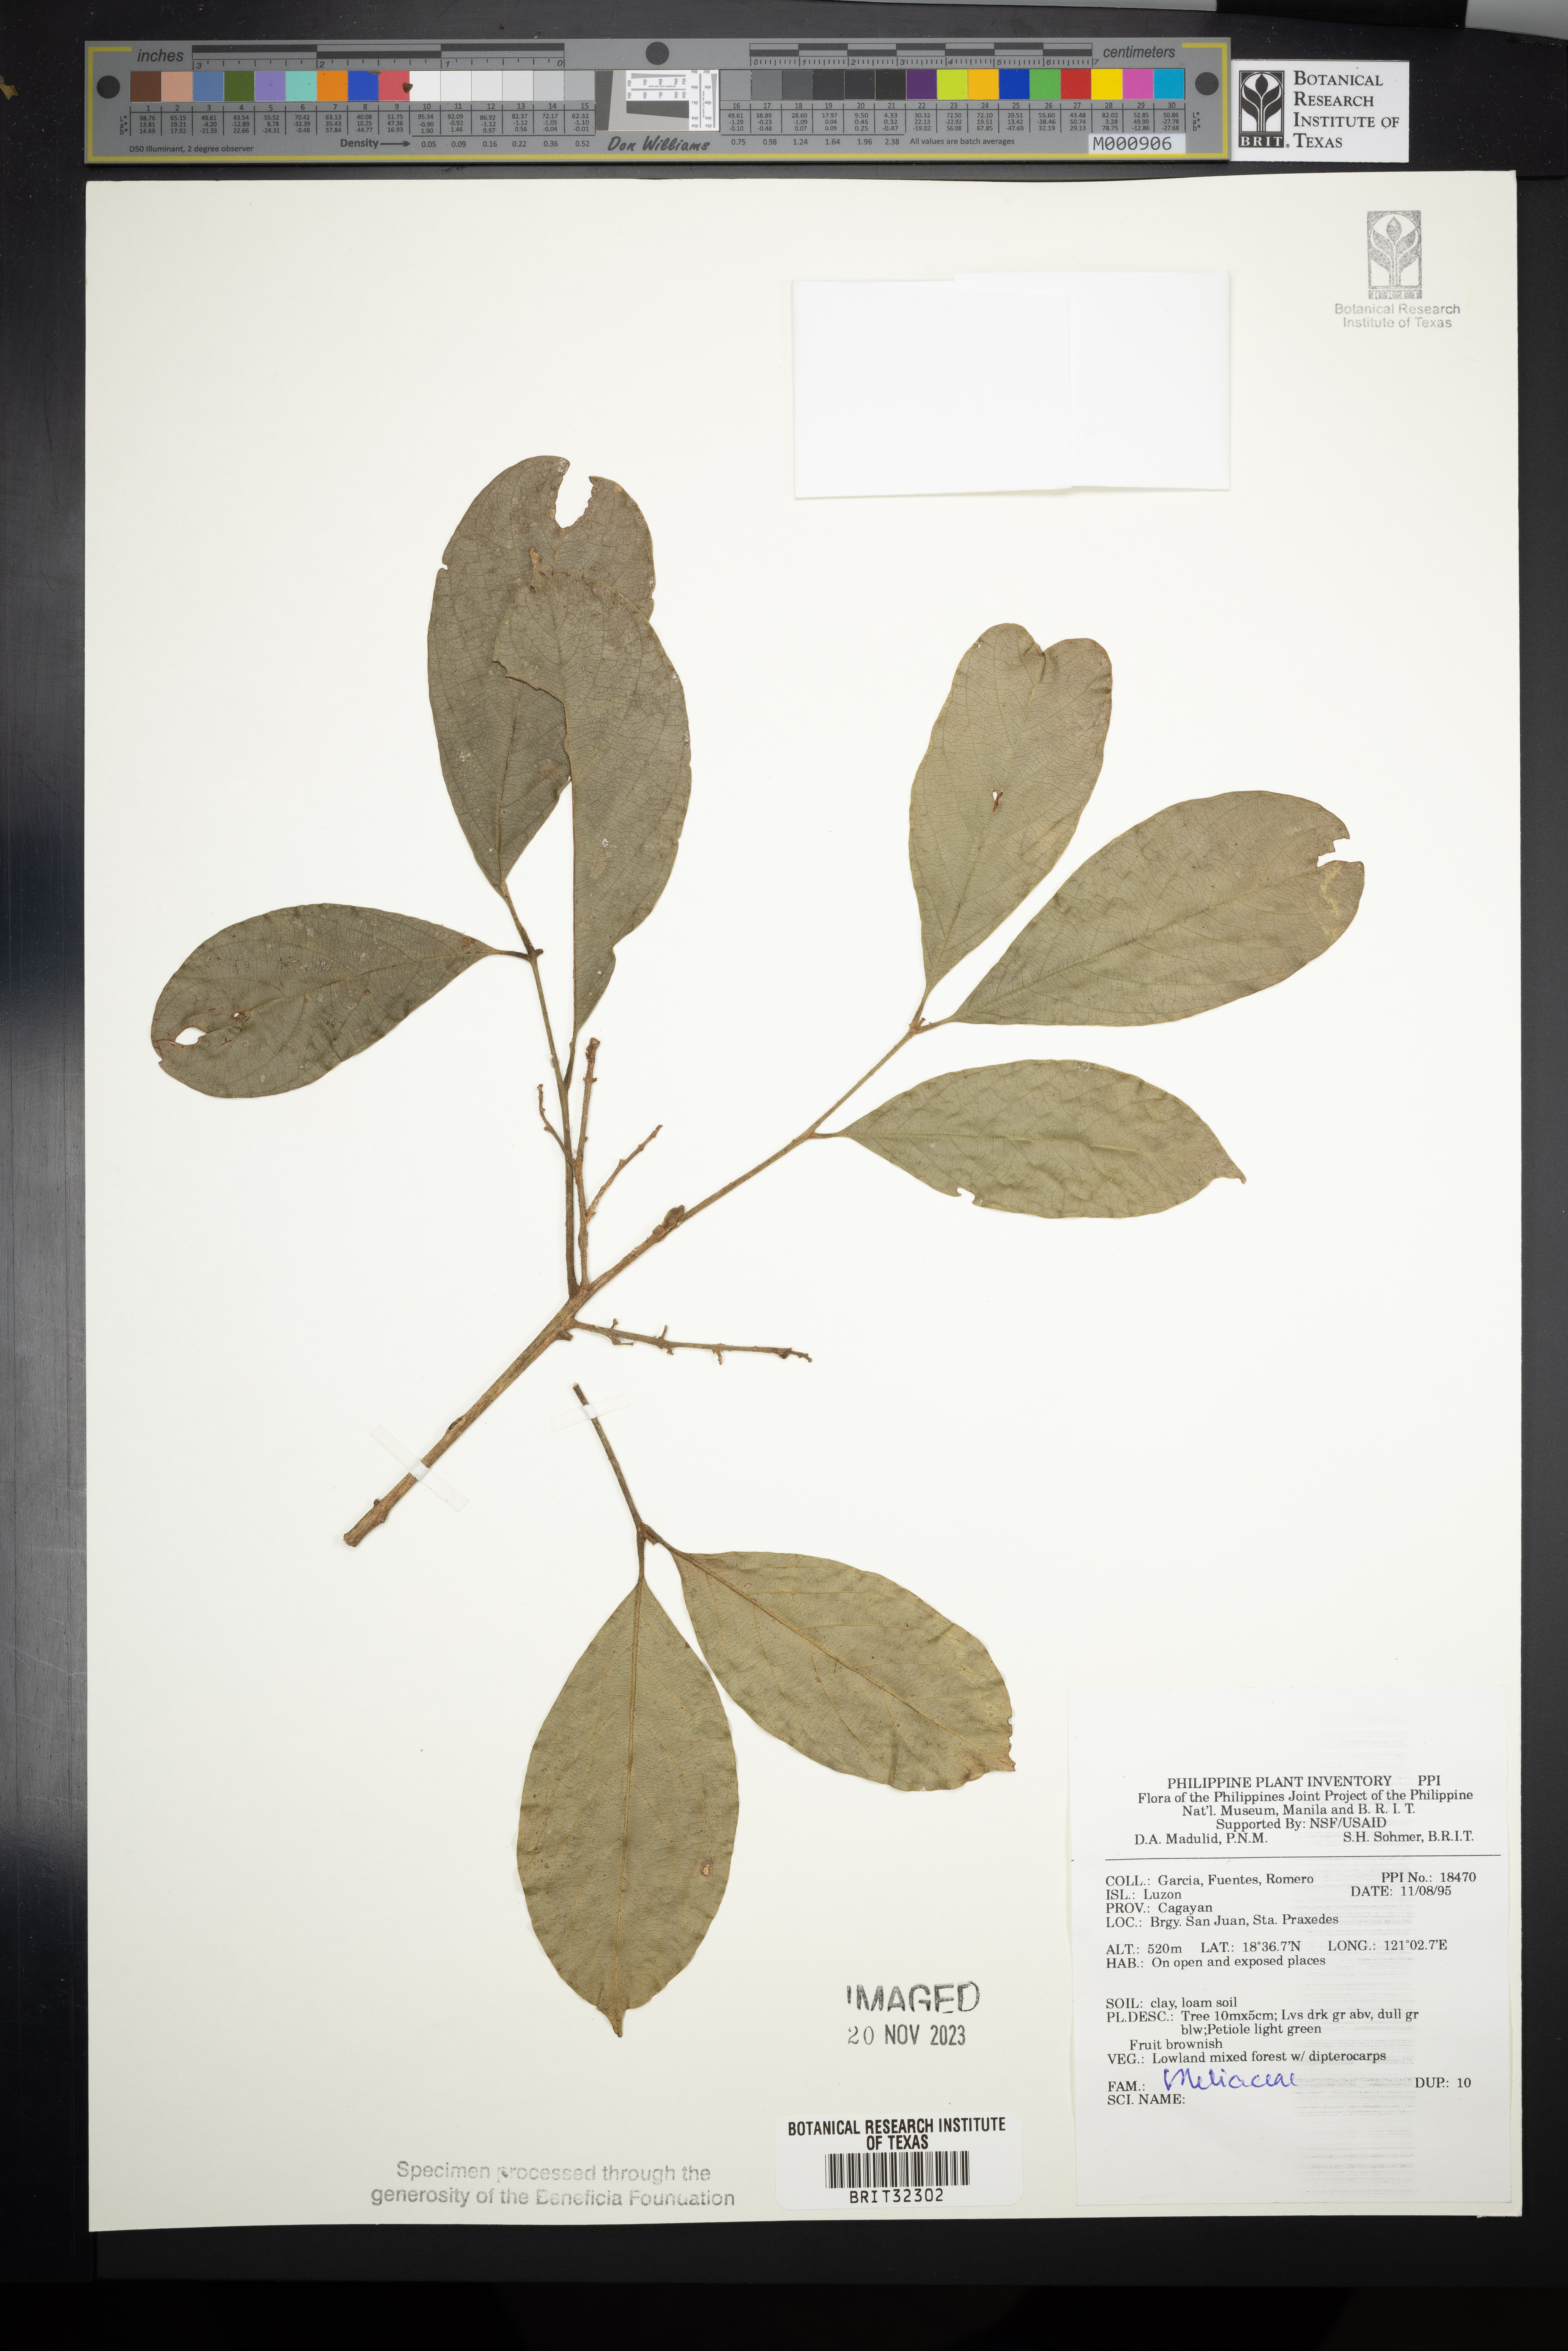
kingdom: Plantae
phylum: Tracheophyta
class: Magnoliopsida
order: Sapindales
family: Meliaceae
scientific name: Meliaceae
